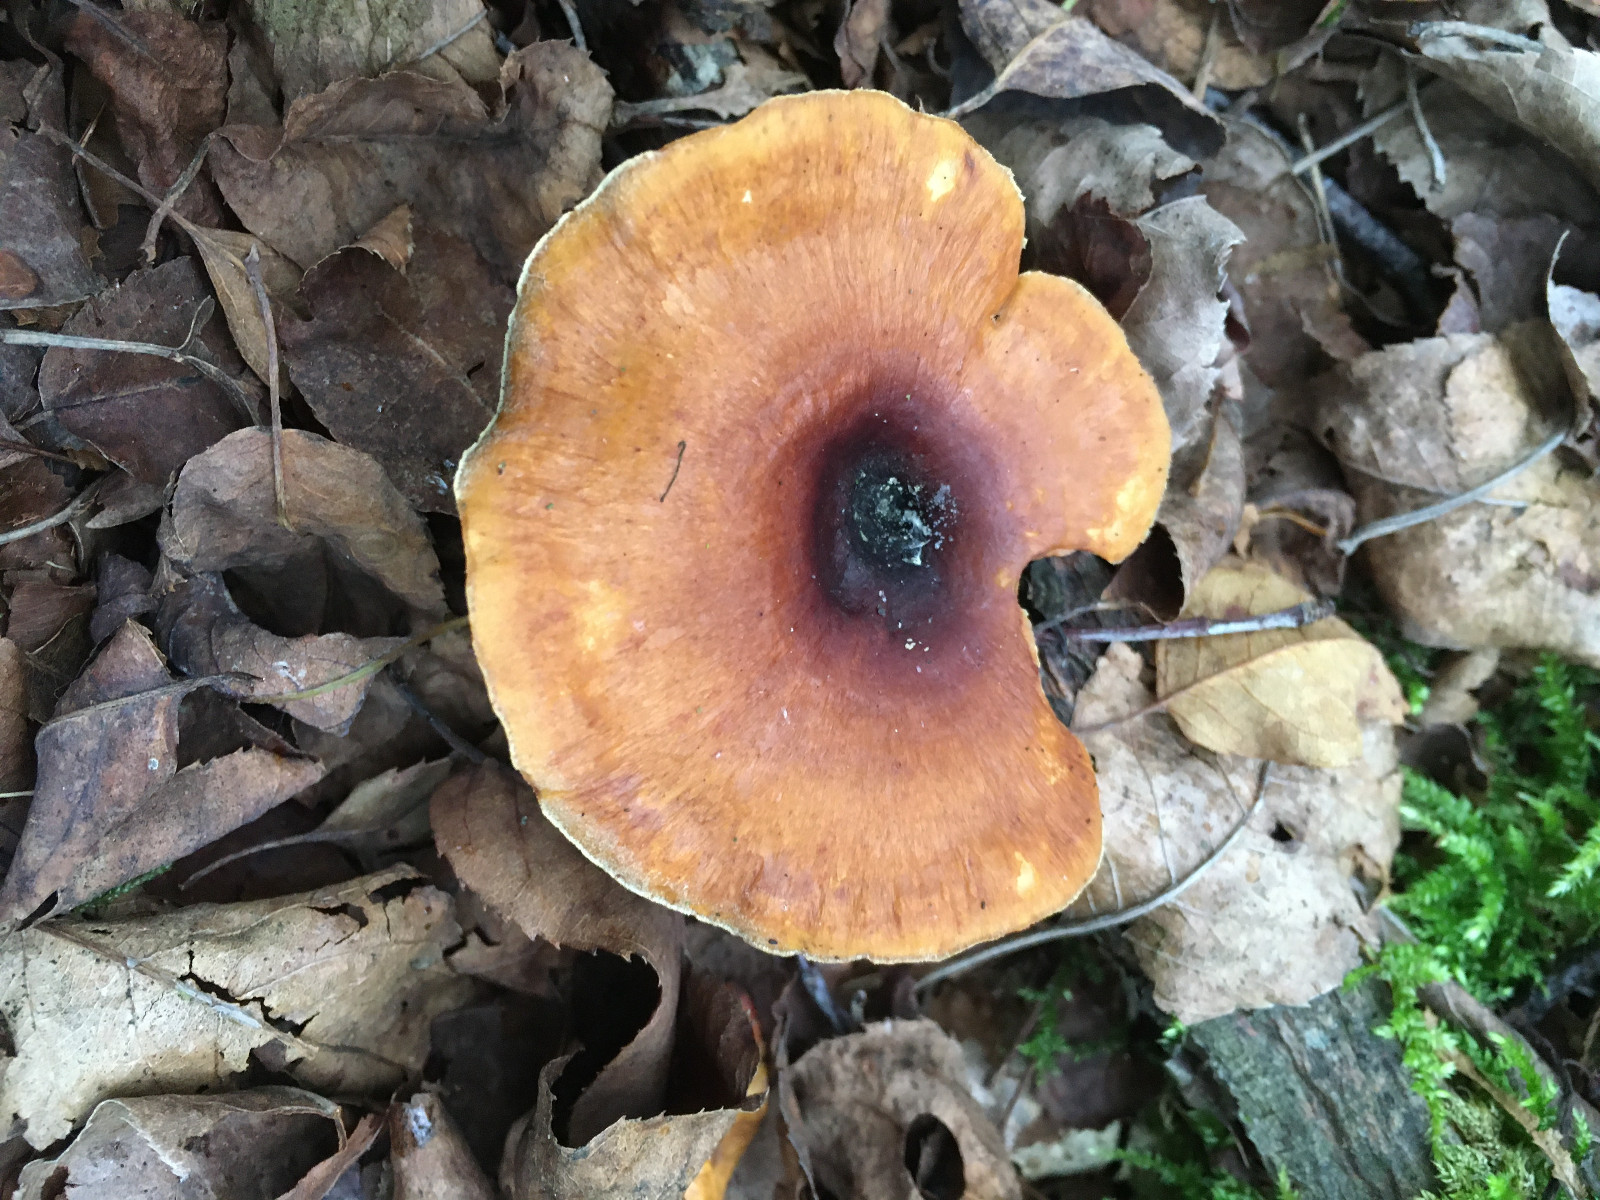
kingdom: Fungi
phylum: Basidiomycota
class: Agaricomycetes
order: Polyporales
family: Polyporaceae
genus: Cerioporus
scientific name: Cerioporus varius
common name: foranderlig stilkporesvamp
